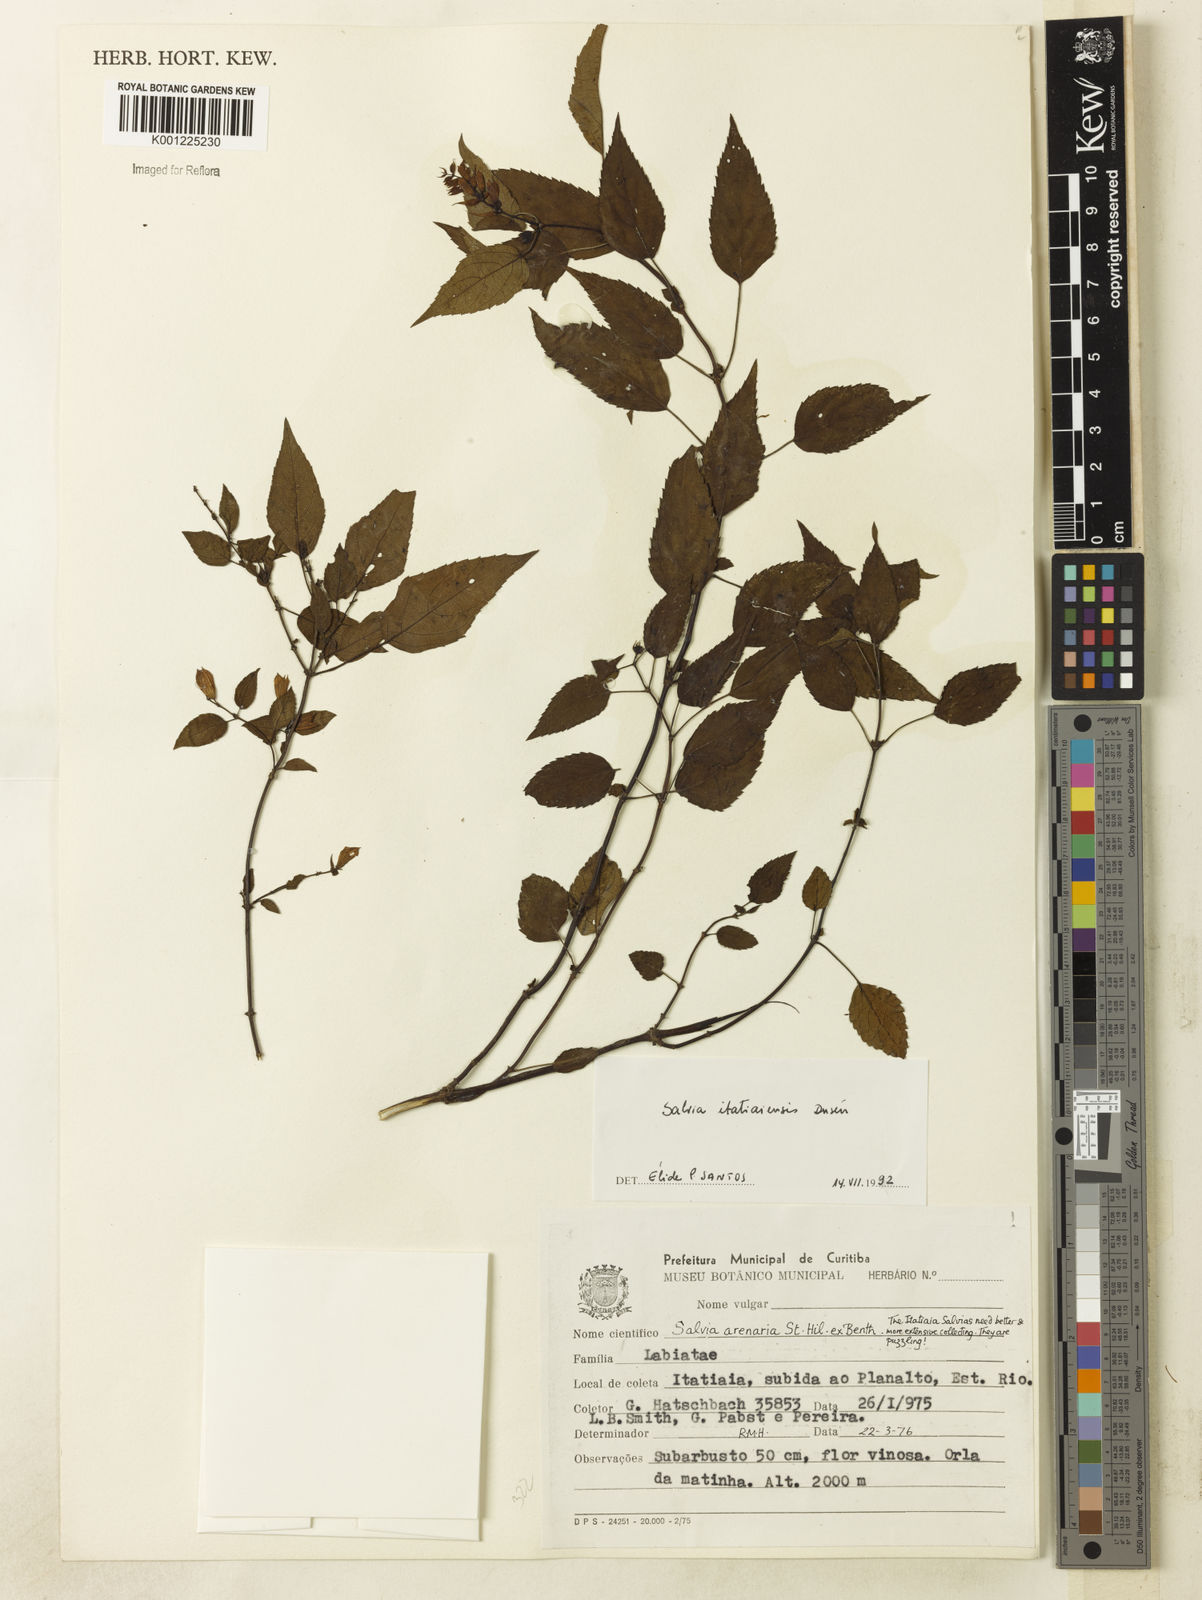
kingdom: Plantae
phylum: Tracheophyta
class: Magnoliopsida
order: Lamiales
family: Lamiaceae
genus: Salvia
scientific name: Salvia
